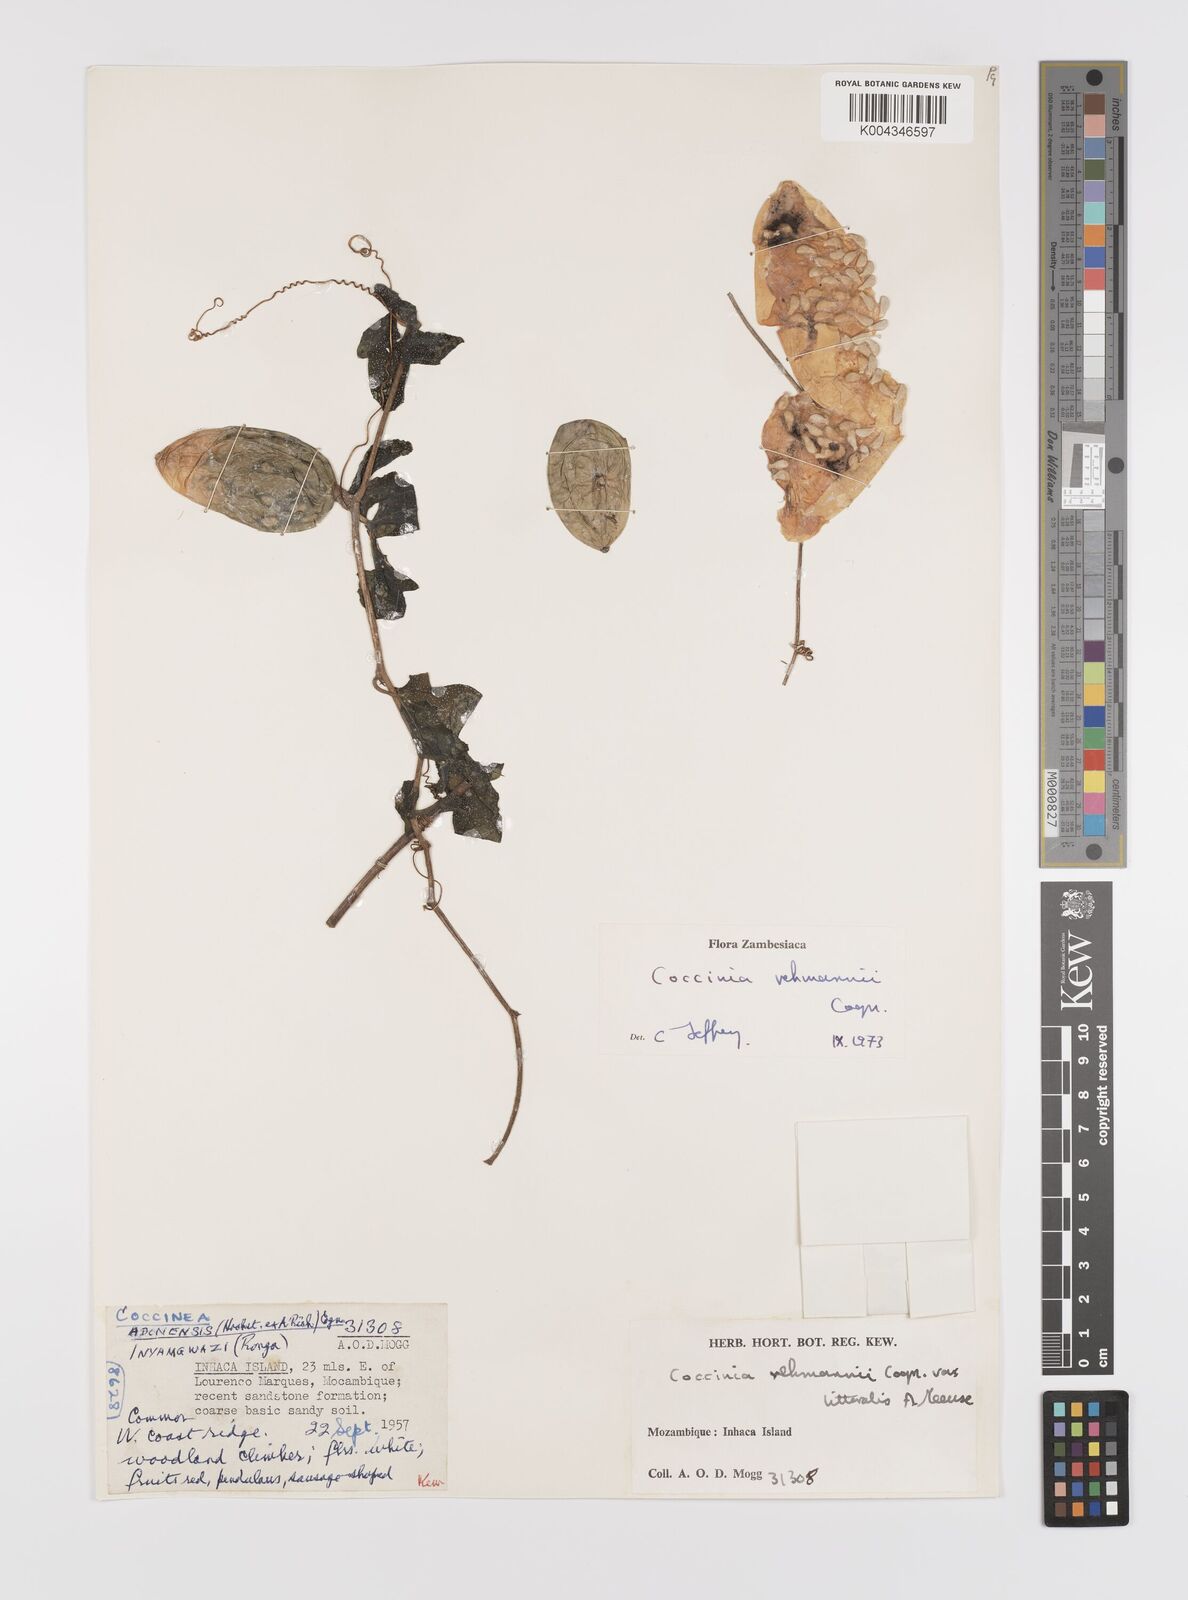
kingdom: Plantae
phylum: Tracheophyta
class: Magnoliopsida
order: Cucurbitales
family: Cucurbitaceae
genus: Coccinia
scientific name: Coccinia rehmannii
